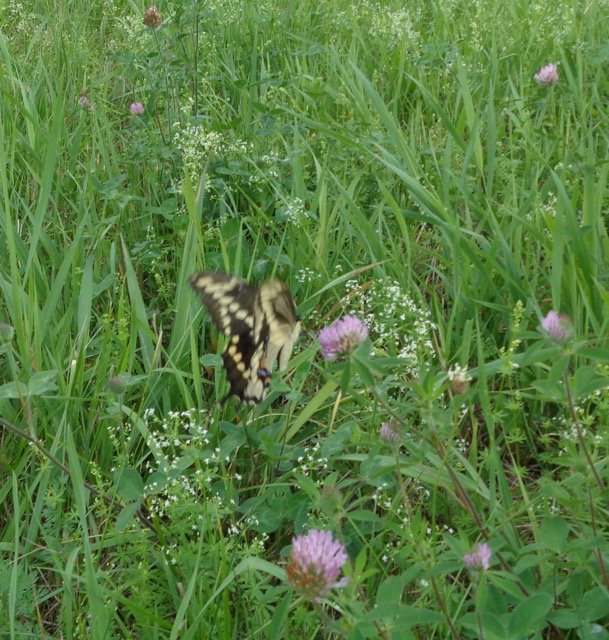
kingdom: Animalia
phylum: Arthropoda
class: Insecta
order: Lepidoptera
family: Papilionidae
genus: Papilio
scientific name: Papilio cresphontes
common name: Eastern Giant Swallowtail
